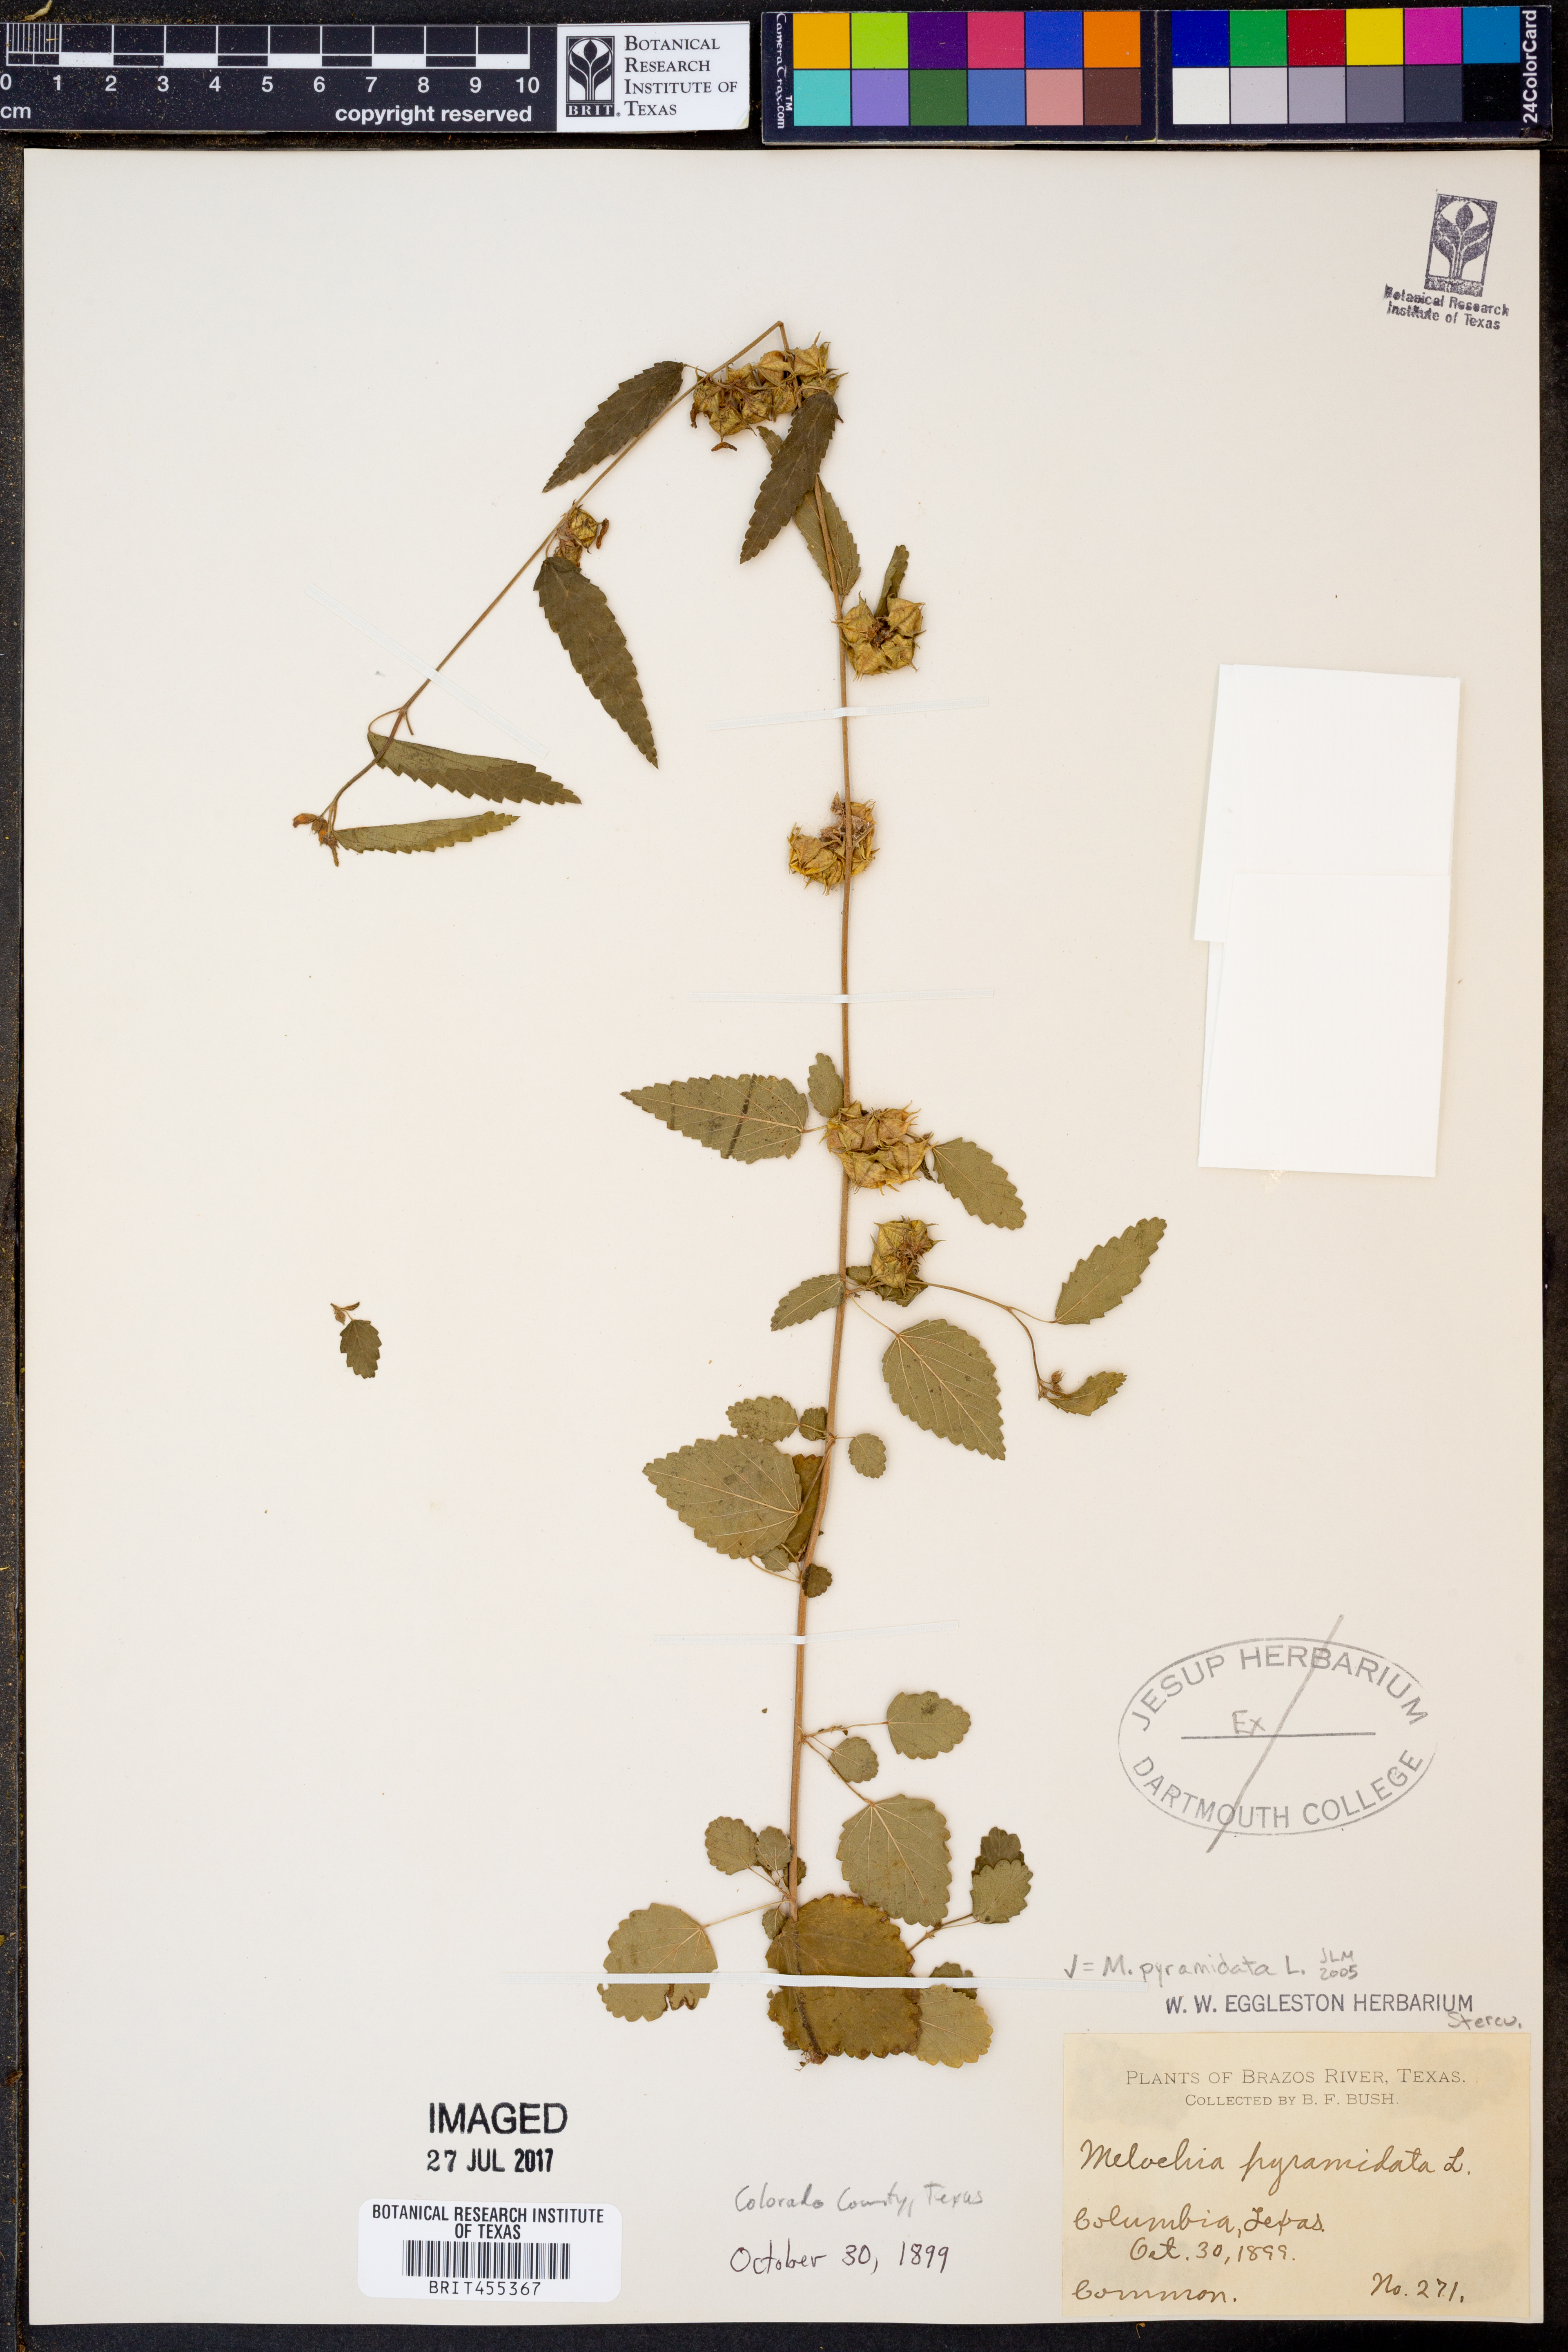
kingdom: Plantae
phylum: Tracheophyta
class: Magnoliopsida
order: Malvales
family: Malvaceae
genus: Melochia
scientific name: Melochia pyramidata
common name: Pyramidflower
